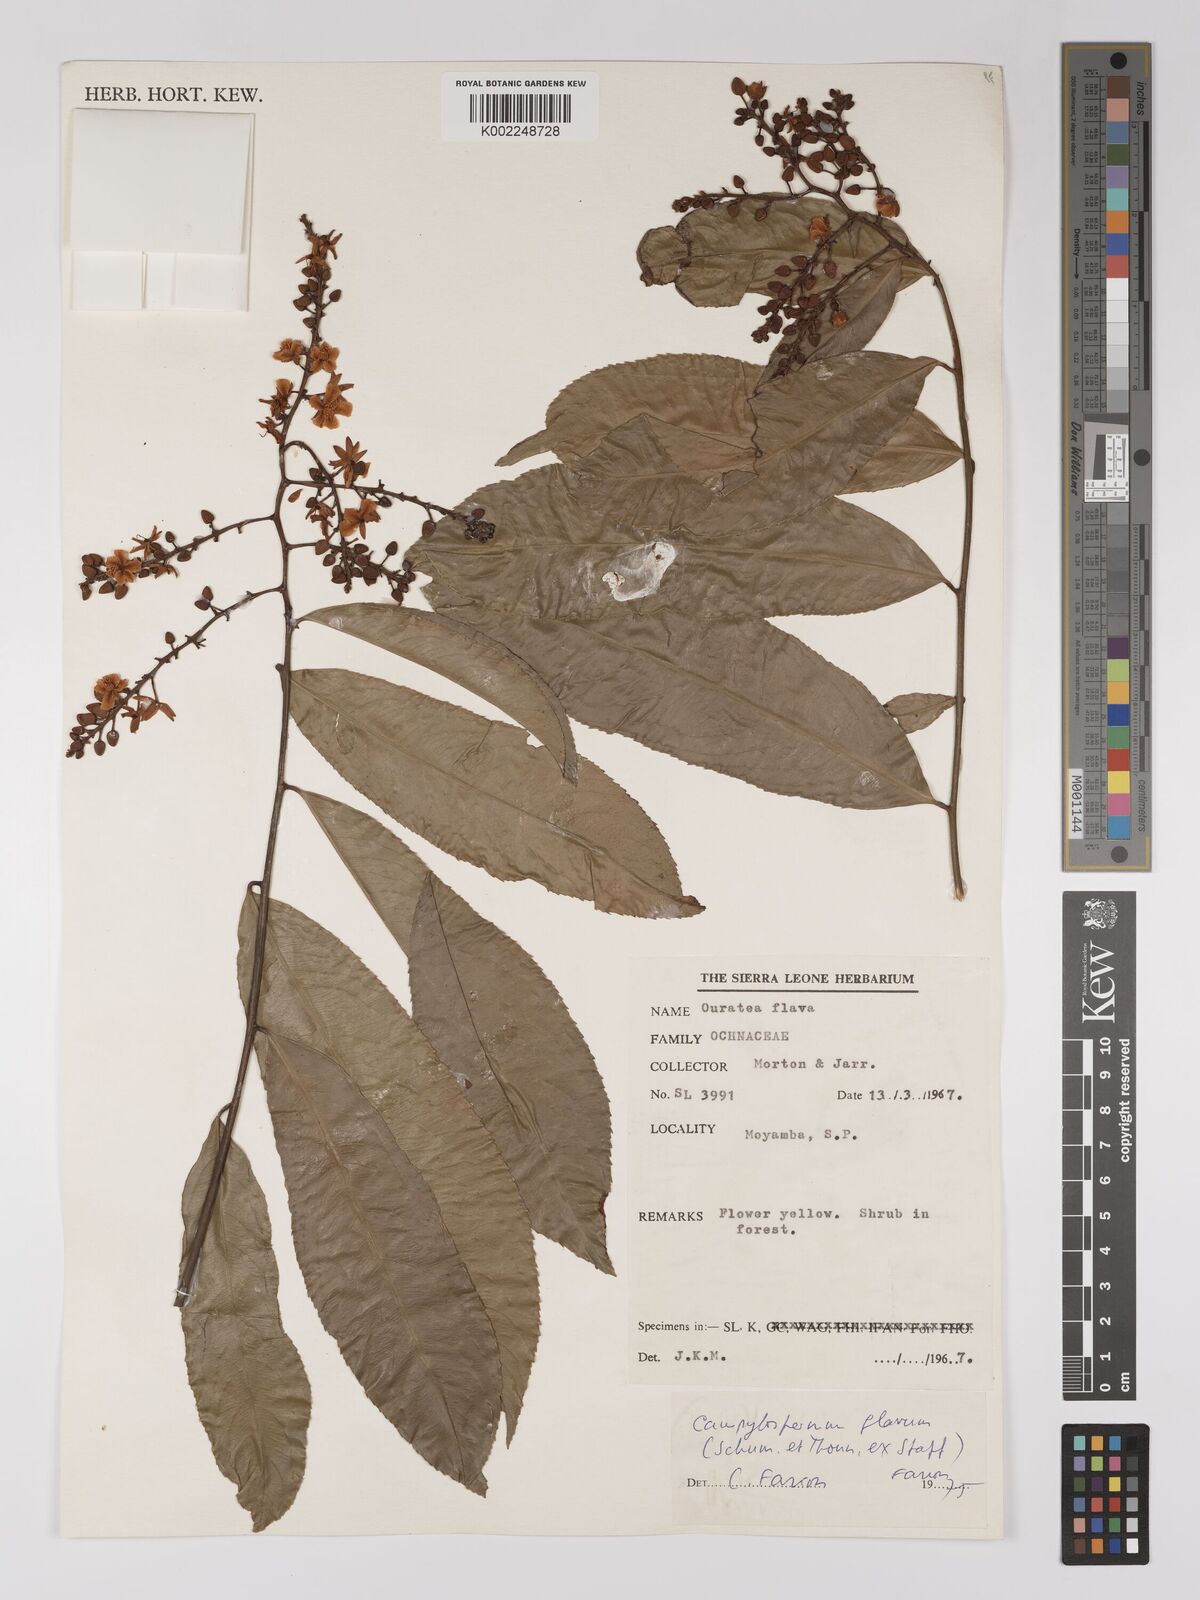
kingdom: Plantae
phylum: Tracheophyta
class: Magnoliopsida
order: Malpighiales
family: Ochnaceae
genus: Campylospermum
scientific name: Campylospermum flavum
